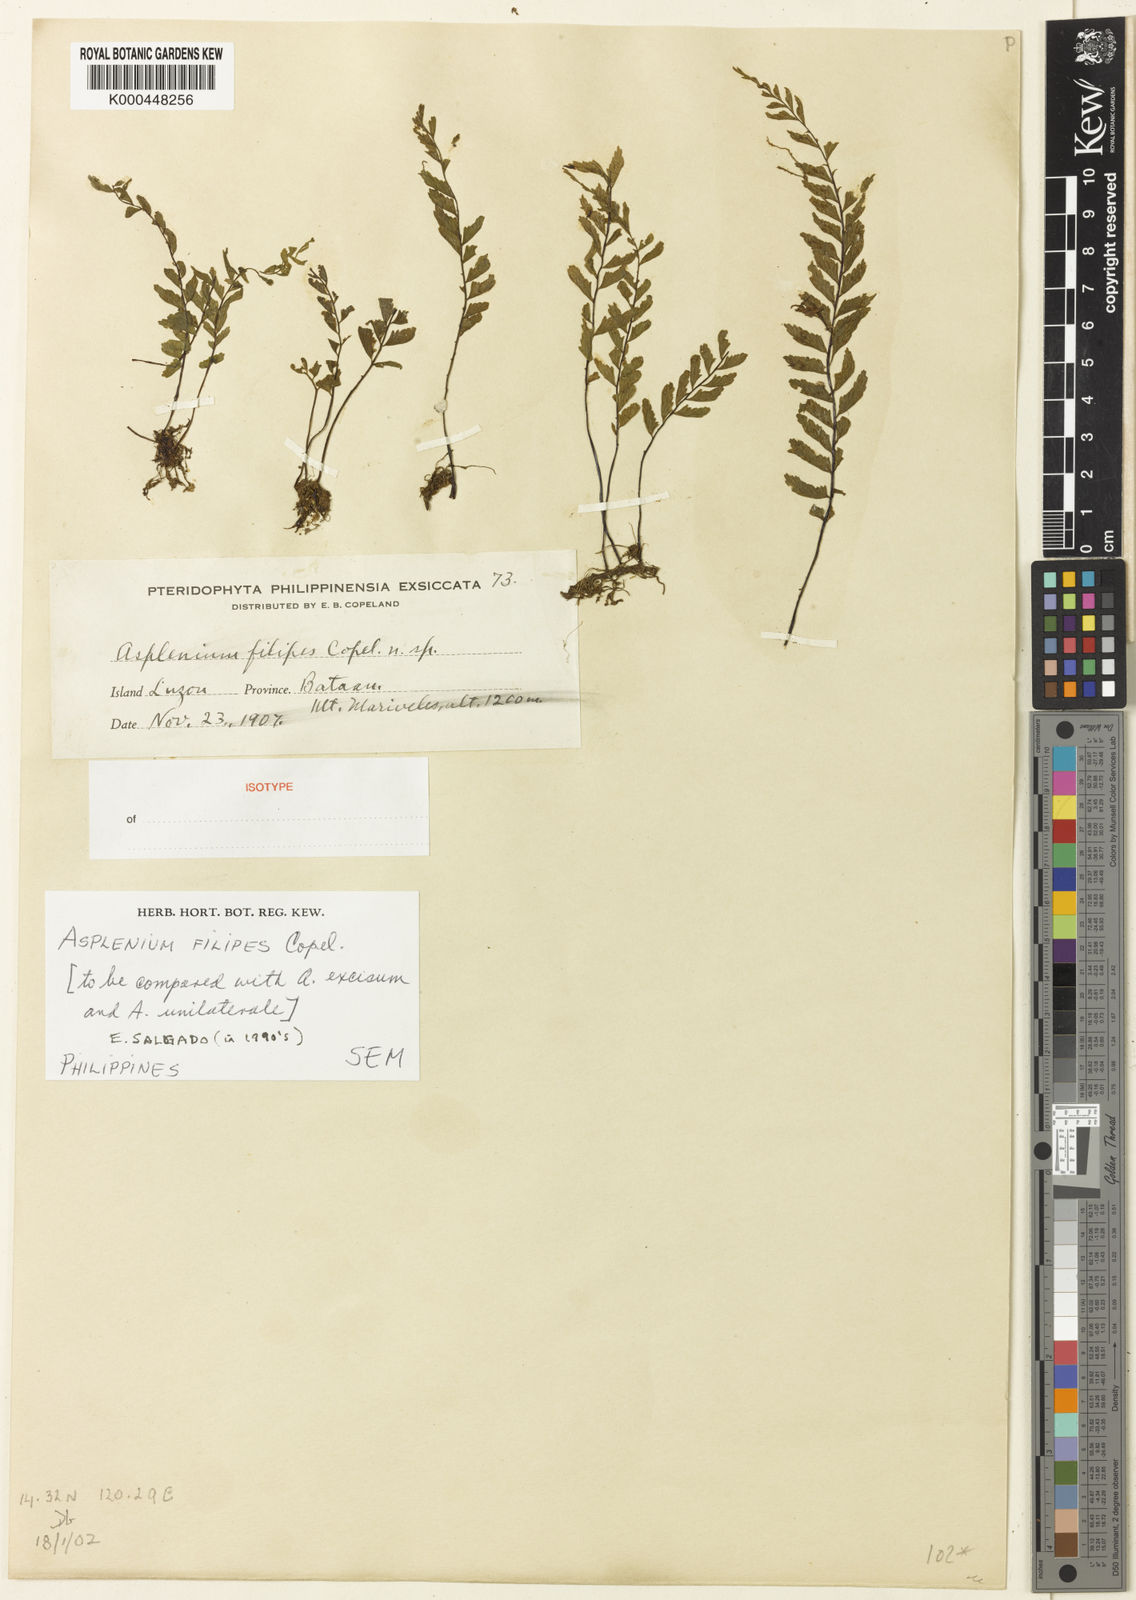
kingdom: Plantae
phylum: Tracheophyta
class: Polypodiopsida
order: Polypodiales
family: Aspleniaceae
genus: Hymenasplenium
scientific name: Hymenasplenium filipes
